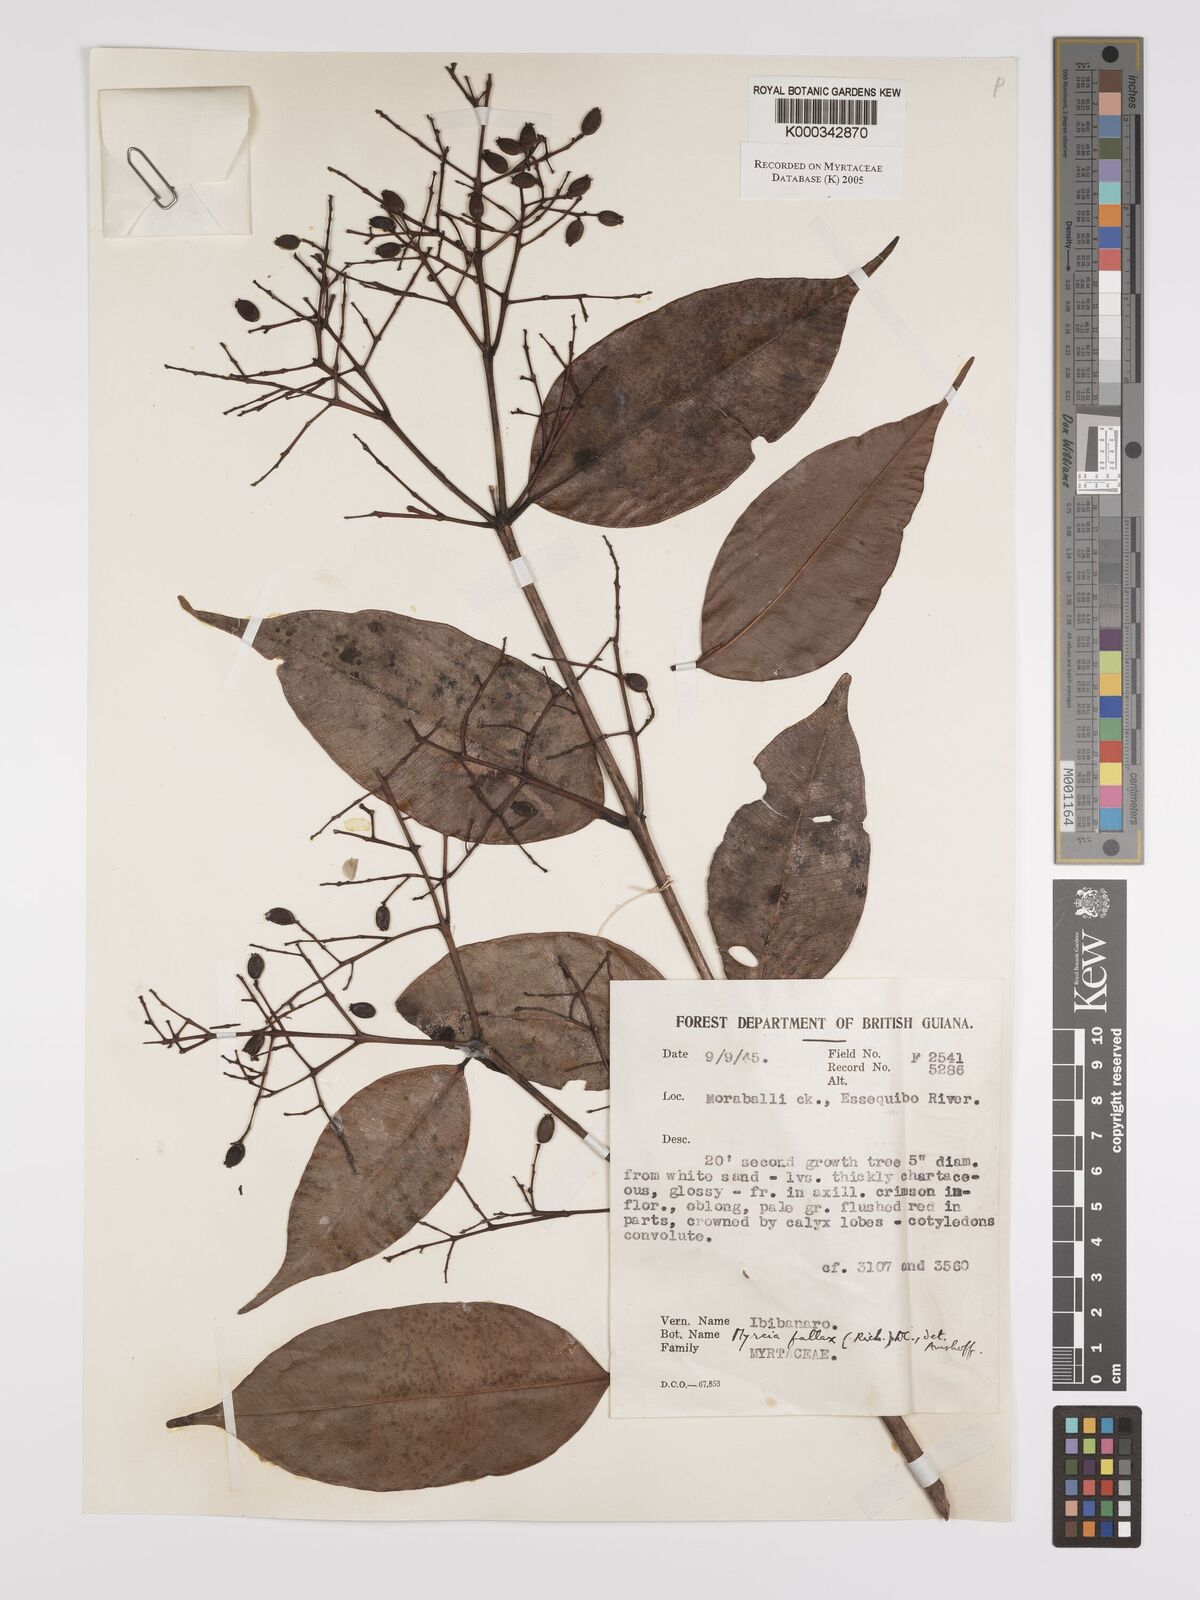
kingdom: Plantae
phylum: Tracheophyta
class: Magnoliopsida
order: Myrtales
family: Myrtaceae
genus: Myrcia
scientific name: Myrcia splendens
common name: Surinam cherry
